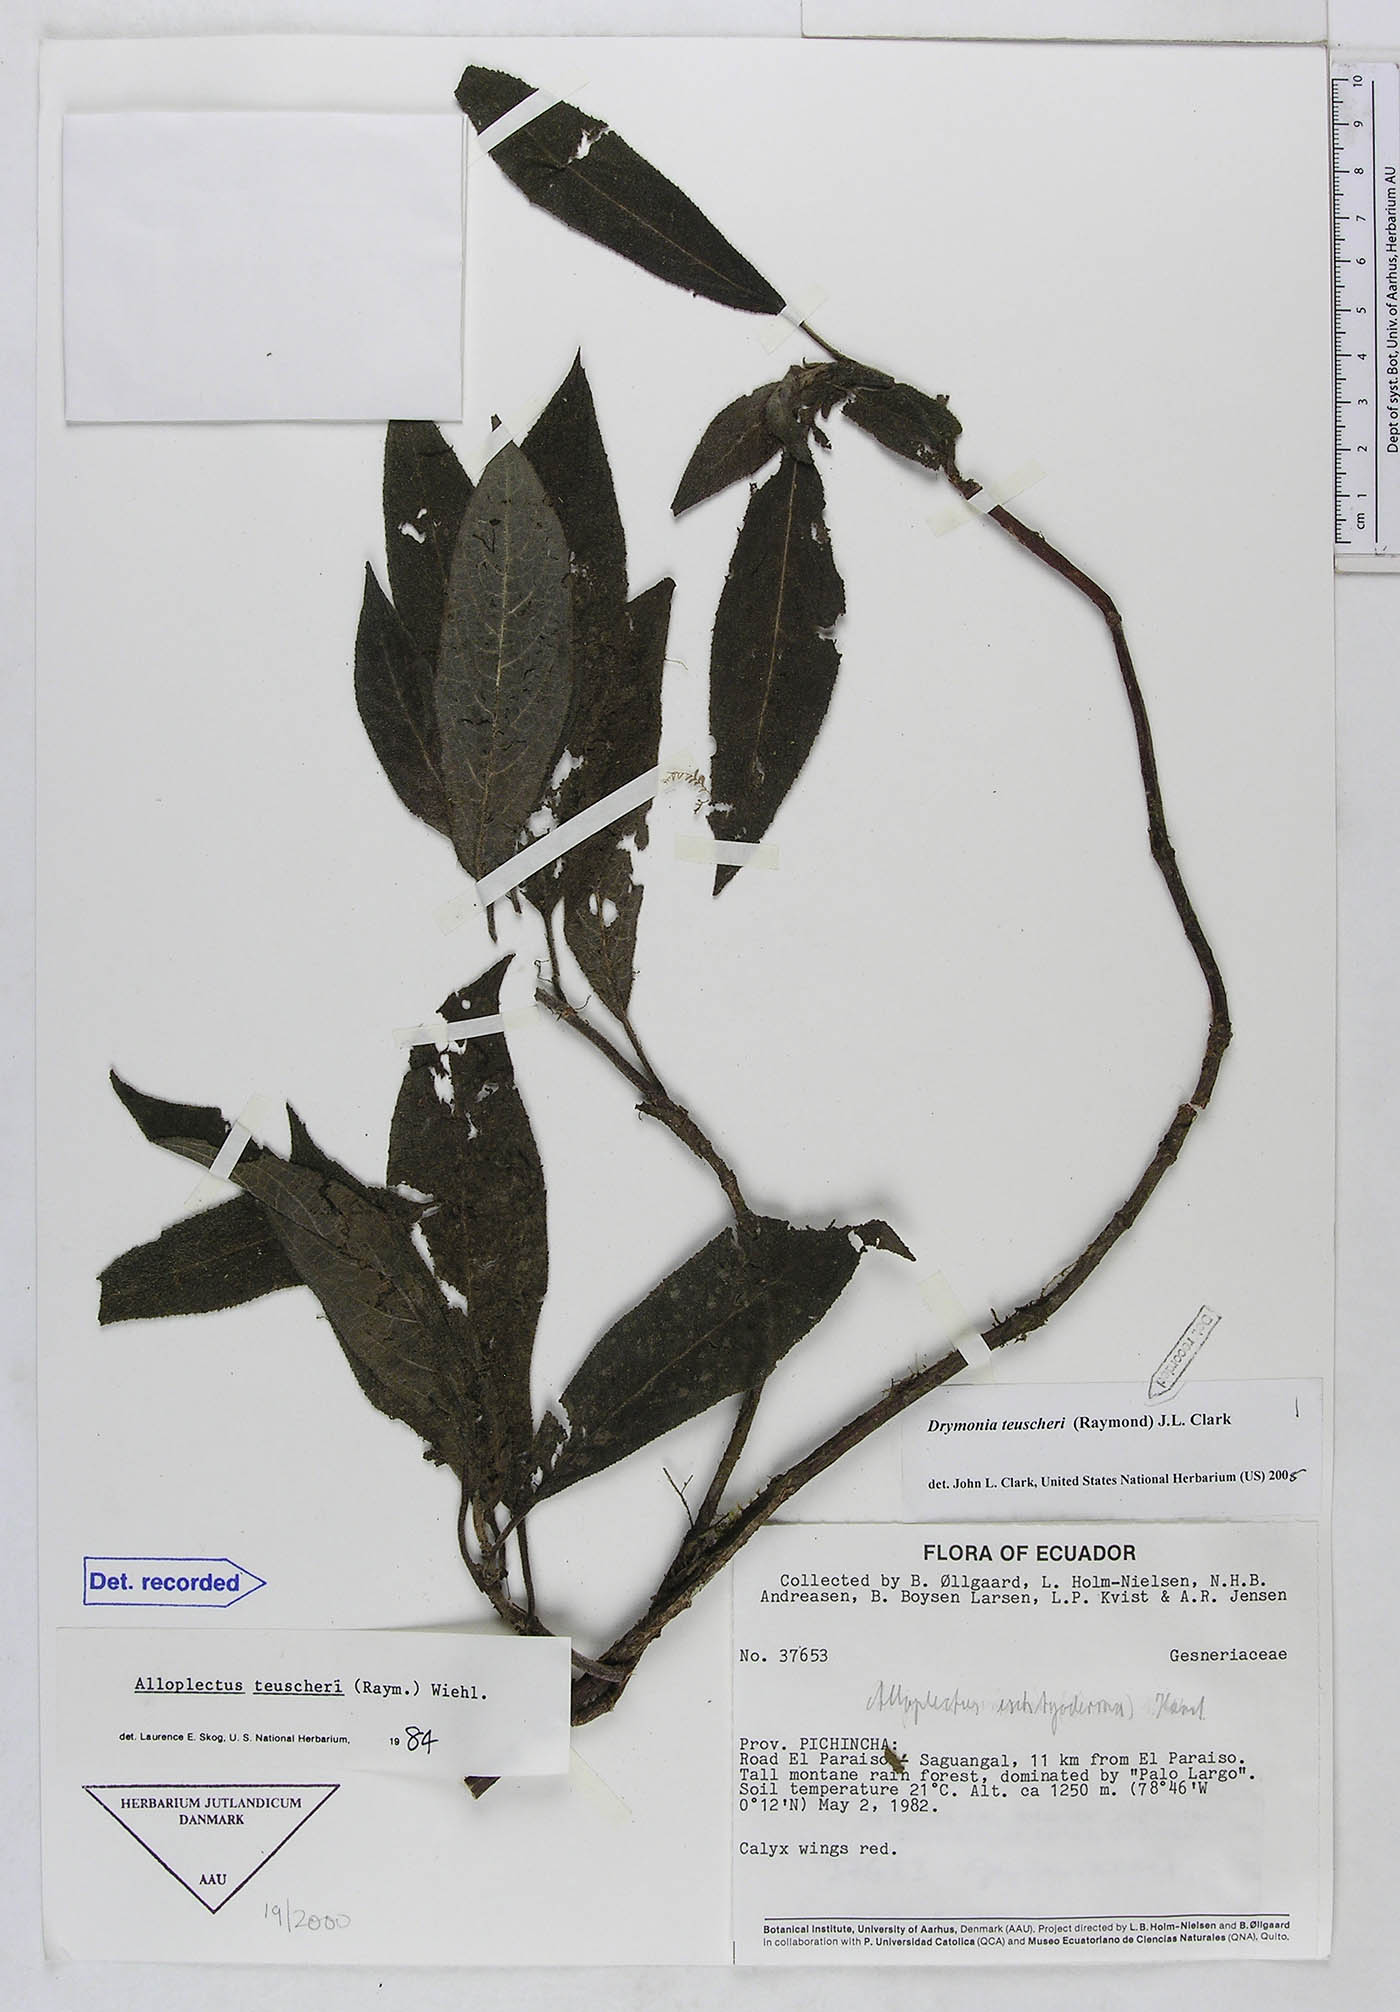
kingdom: Plantae
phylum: Tracheophyta
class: Magnoliopsida
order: Lamiales
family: Gesneriaceae
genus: Drymonia
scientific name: Drymonia teuscheri
